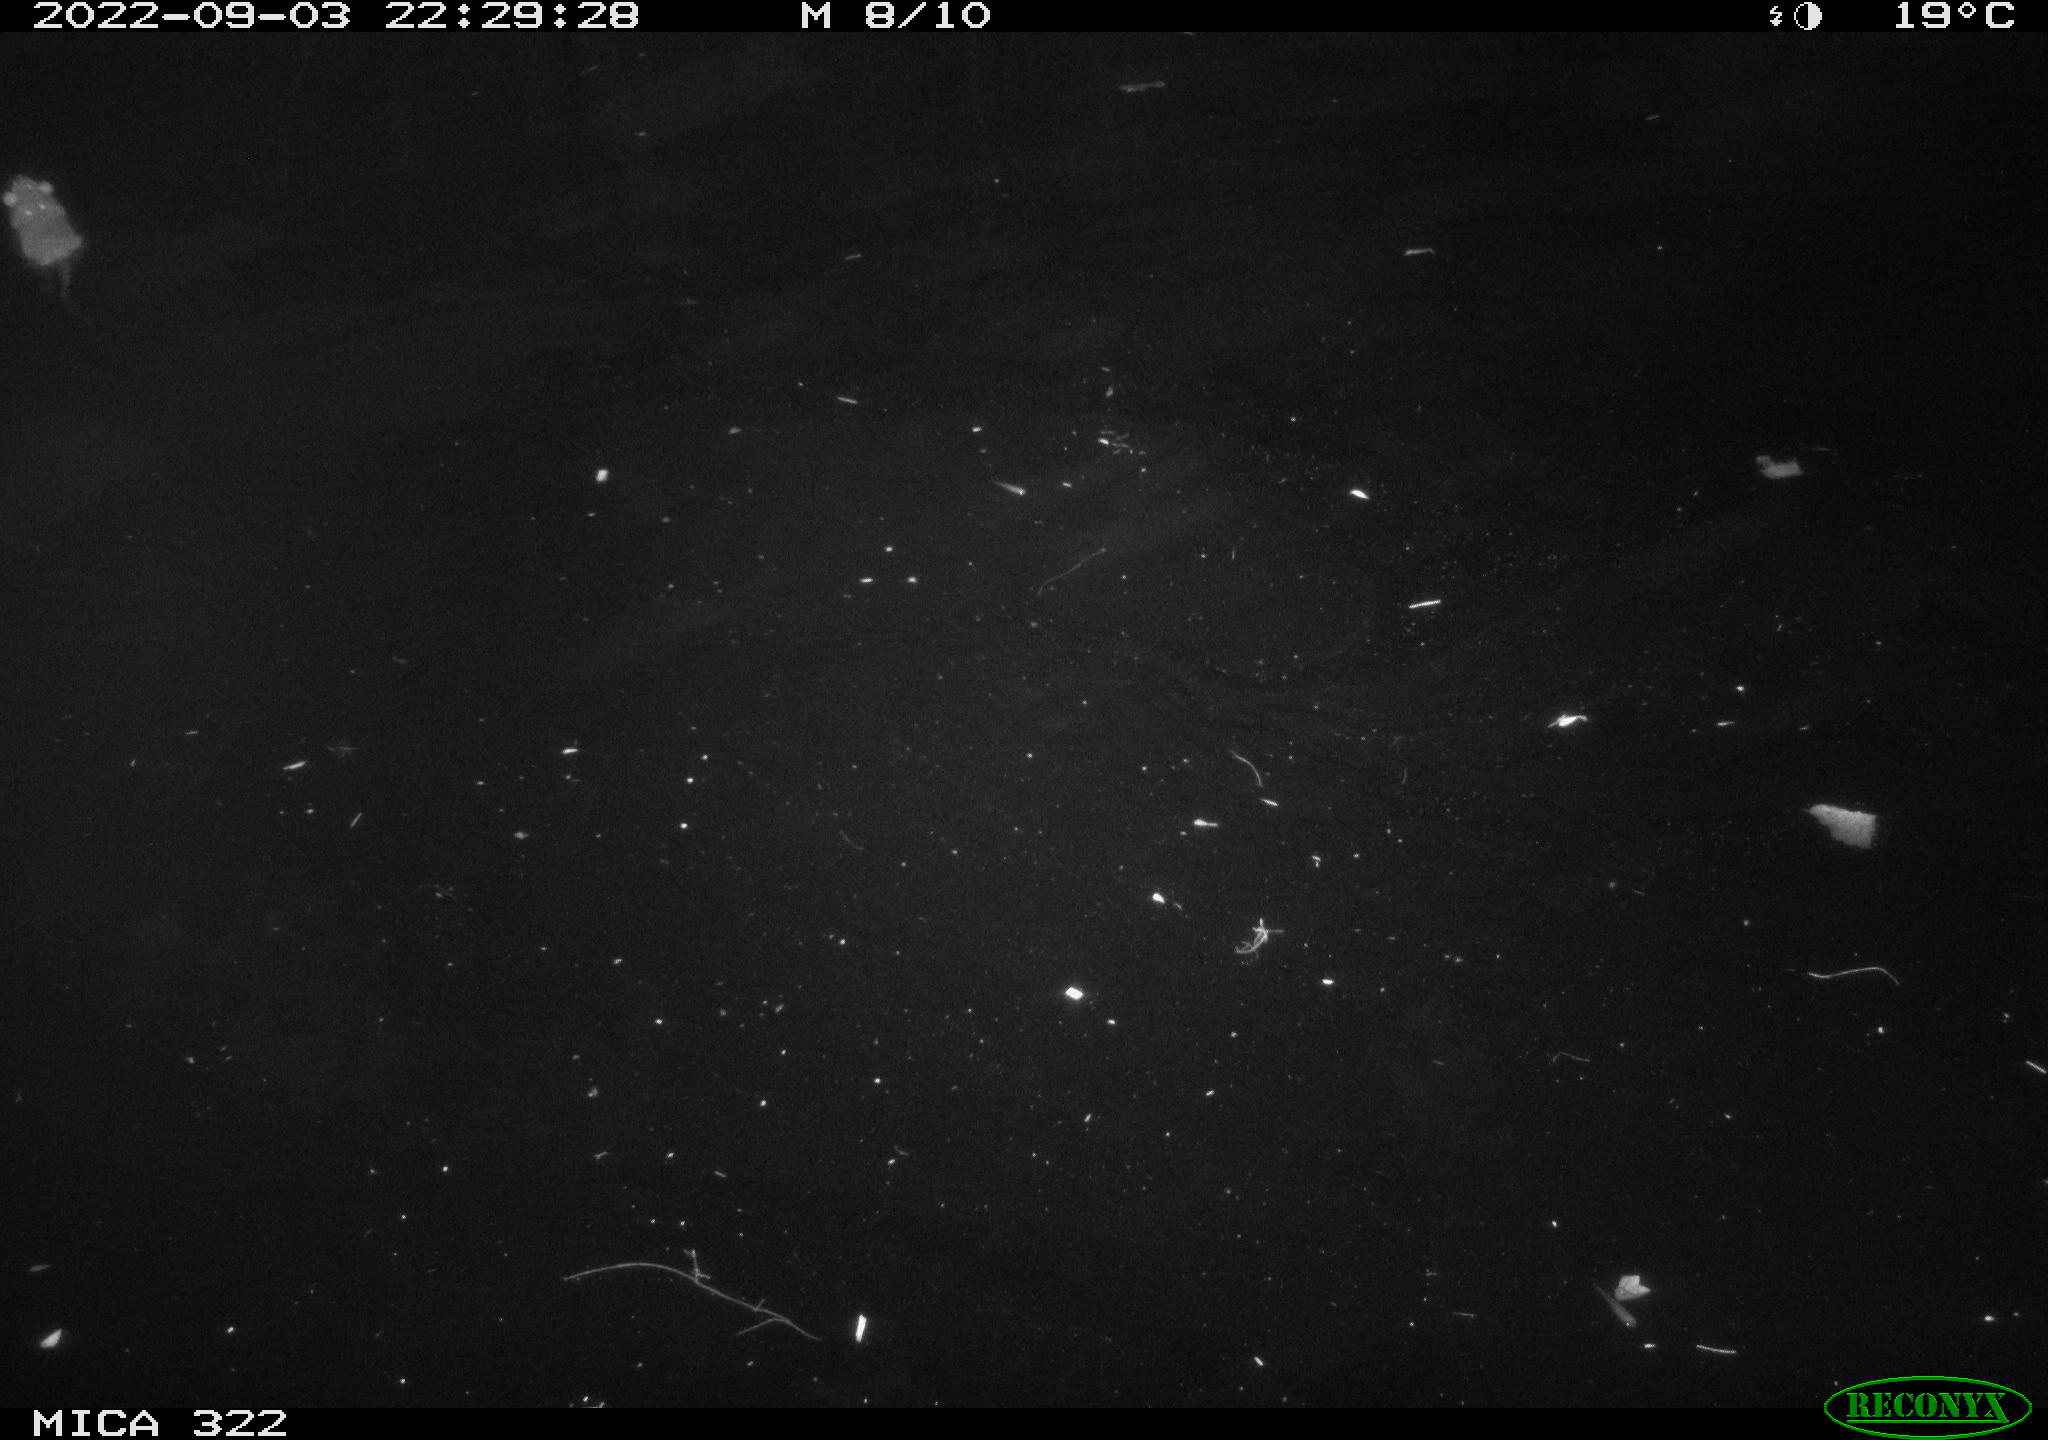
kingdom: Animalia
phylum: Chordata
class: Mammalia
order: Rodentia
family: Muridae
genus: Rattus
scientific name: Rattus norvegicus
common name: Brown rat
